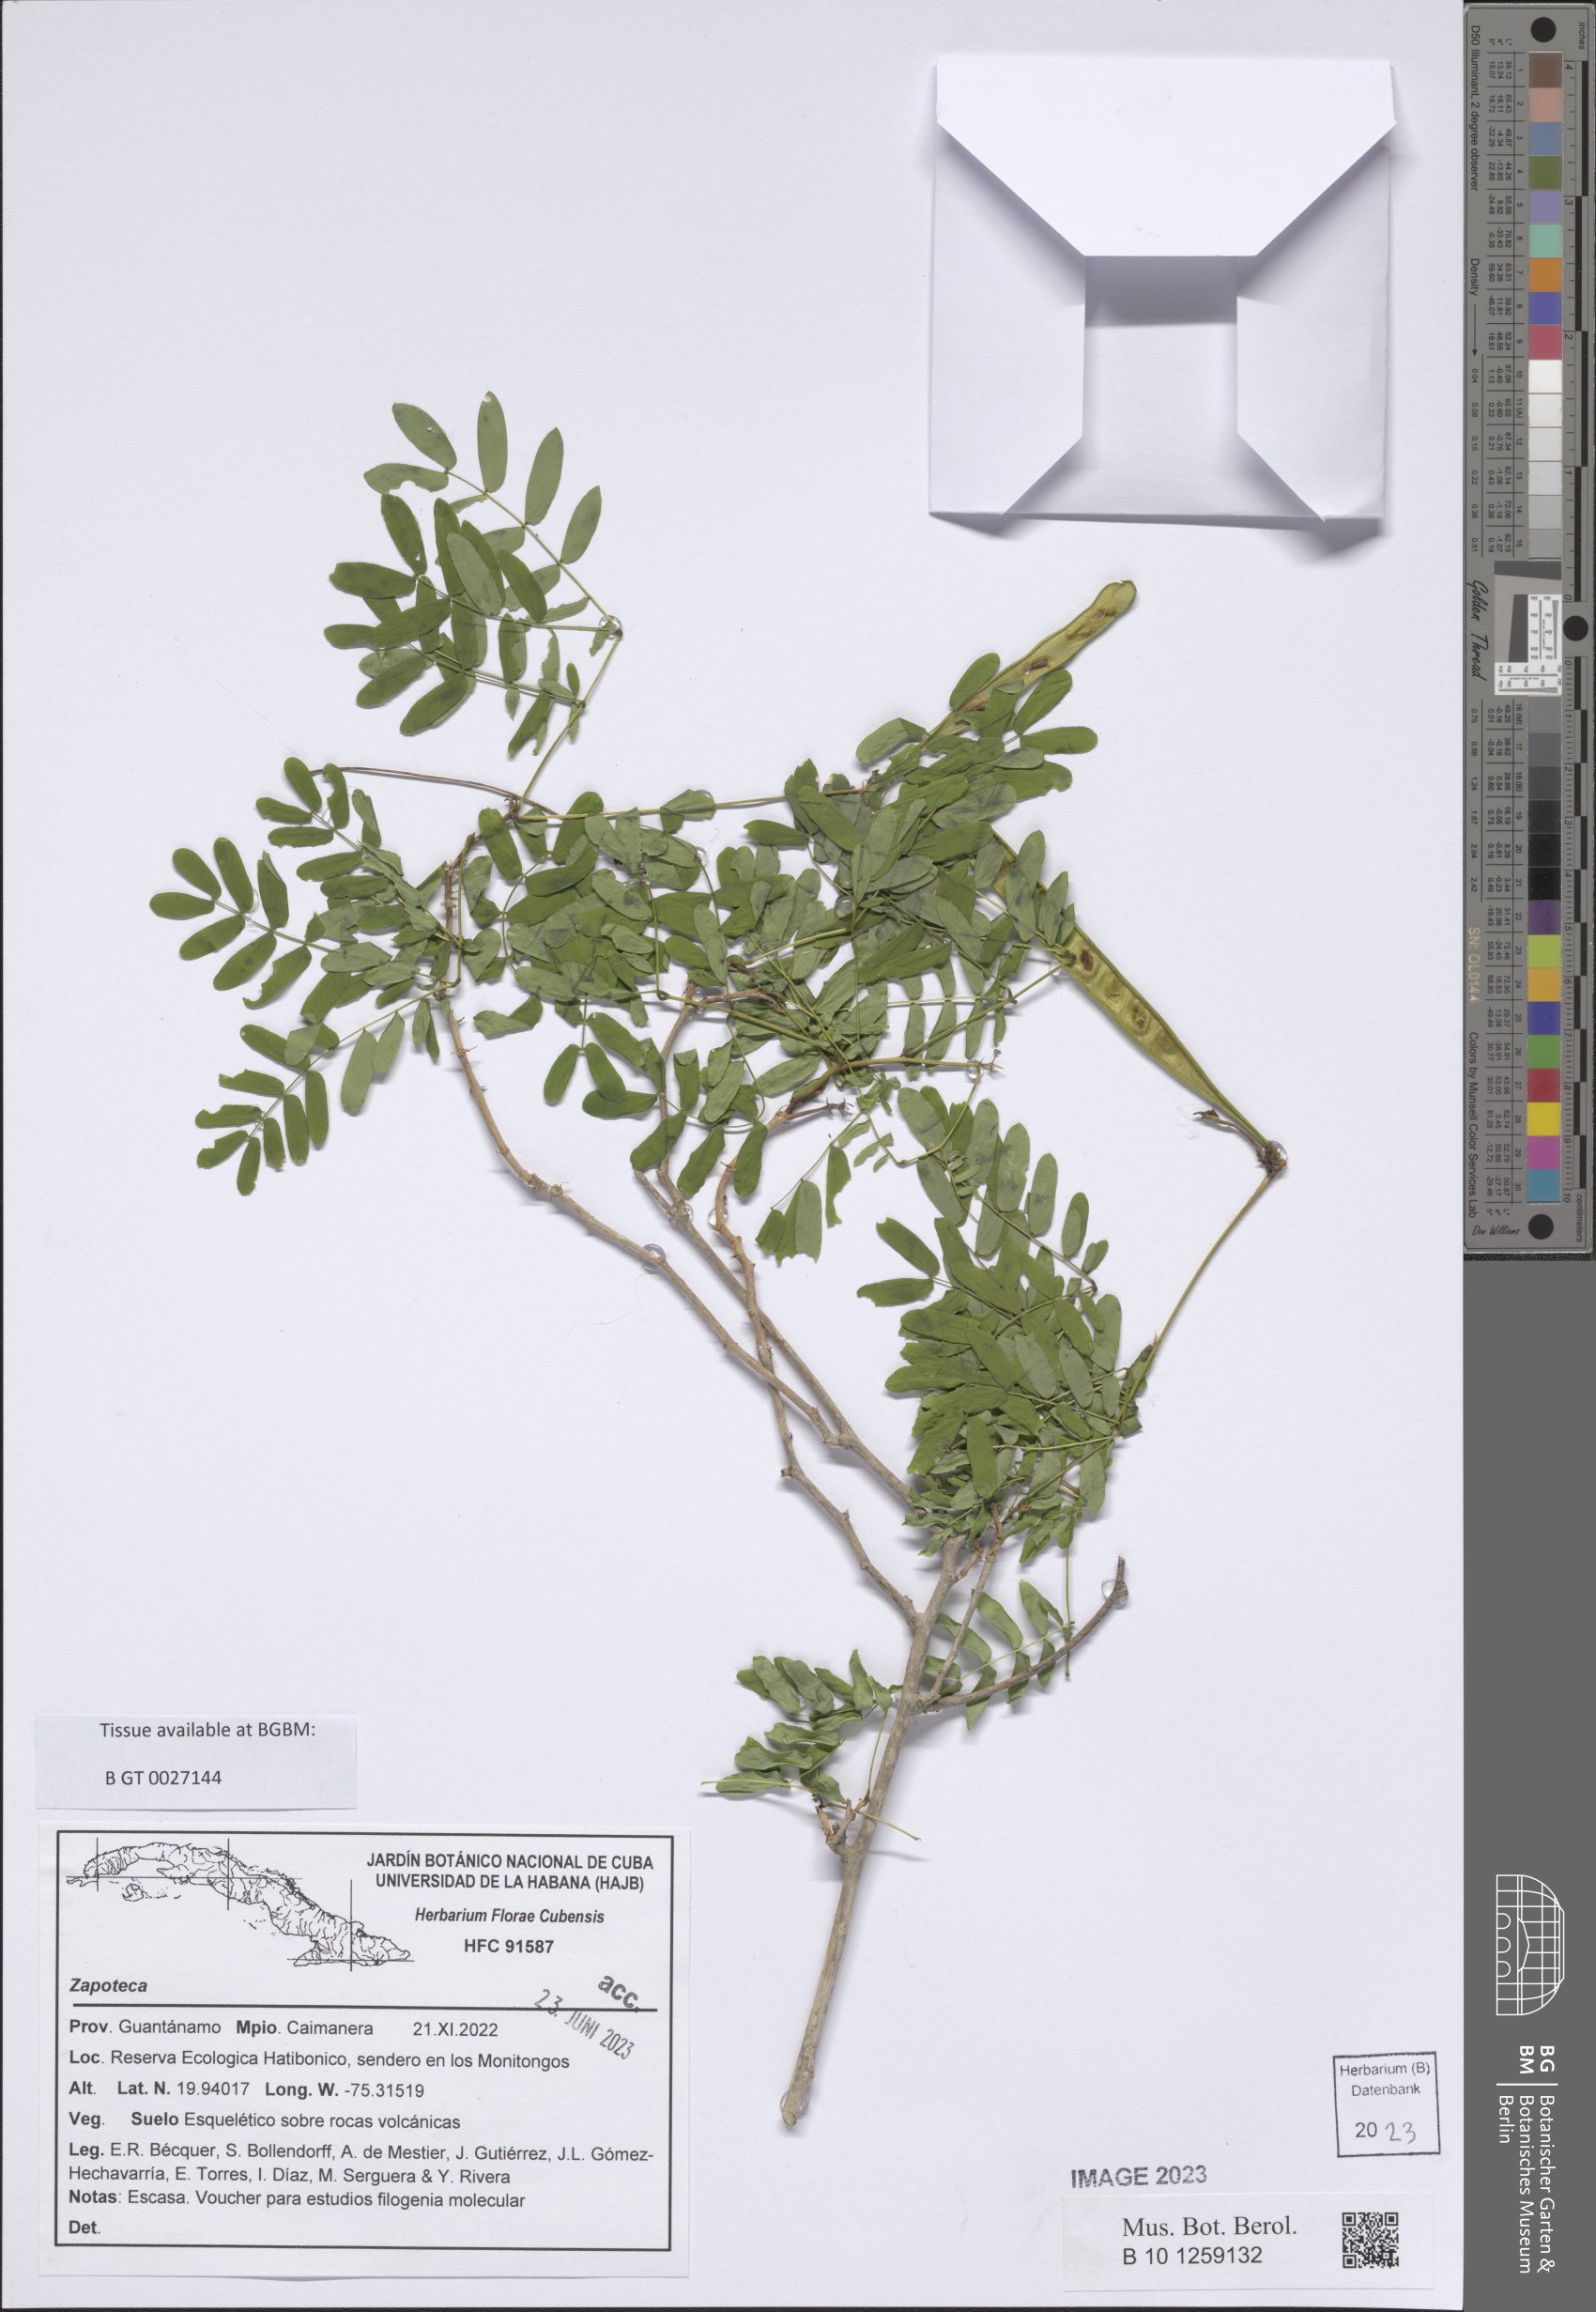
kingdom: Plantae
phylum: Tracheophyta
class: Magnoliopsida
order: Fabales
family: Fabaceae
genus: Zapoteca
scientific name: Zapoteca
